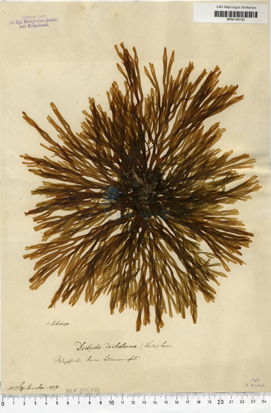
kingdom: Chromista
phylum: Ochrophyta
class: Phaeophyceae
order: Dictyotales
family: Dictyotaceae
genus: Dictyota
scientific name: Dictyota dichotoma
